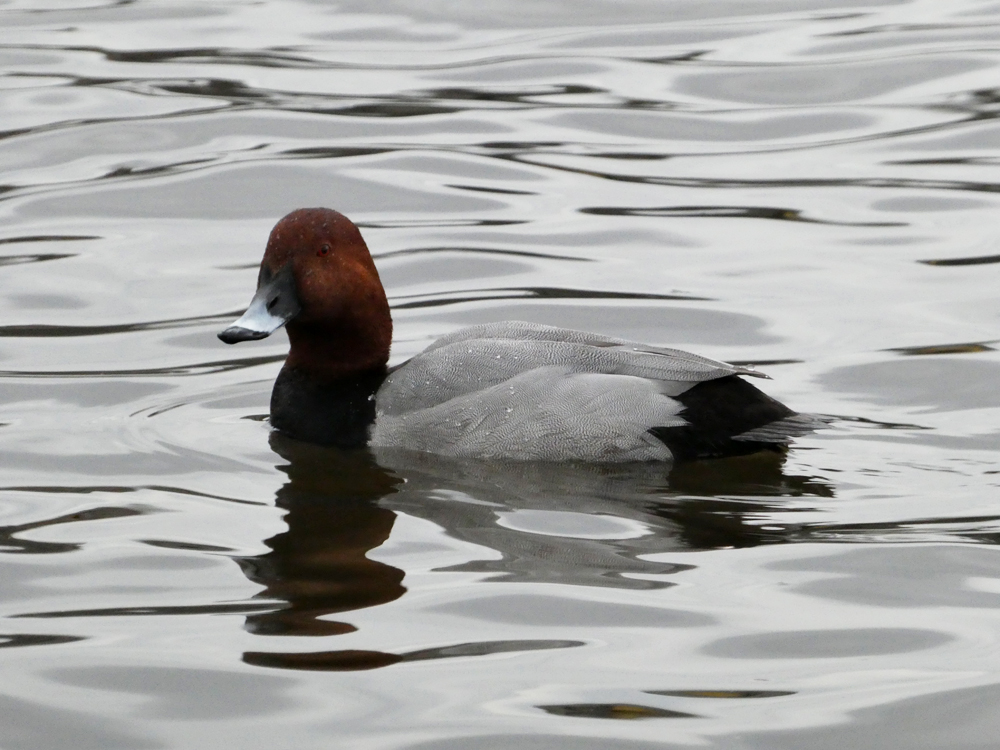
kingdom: Animalia
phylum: Chordata
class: Aves
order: Anseriformes
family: Anatidae
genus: Aythya
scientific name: Aythya ferina
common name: Common pochard
